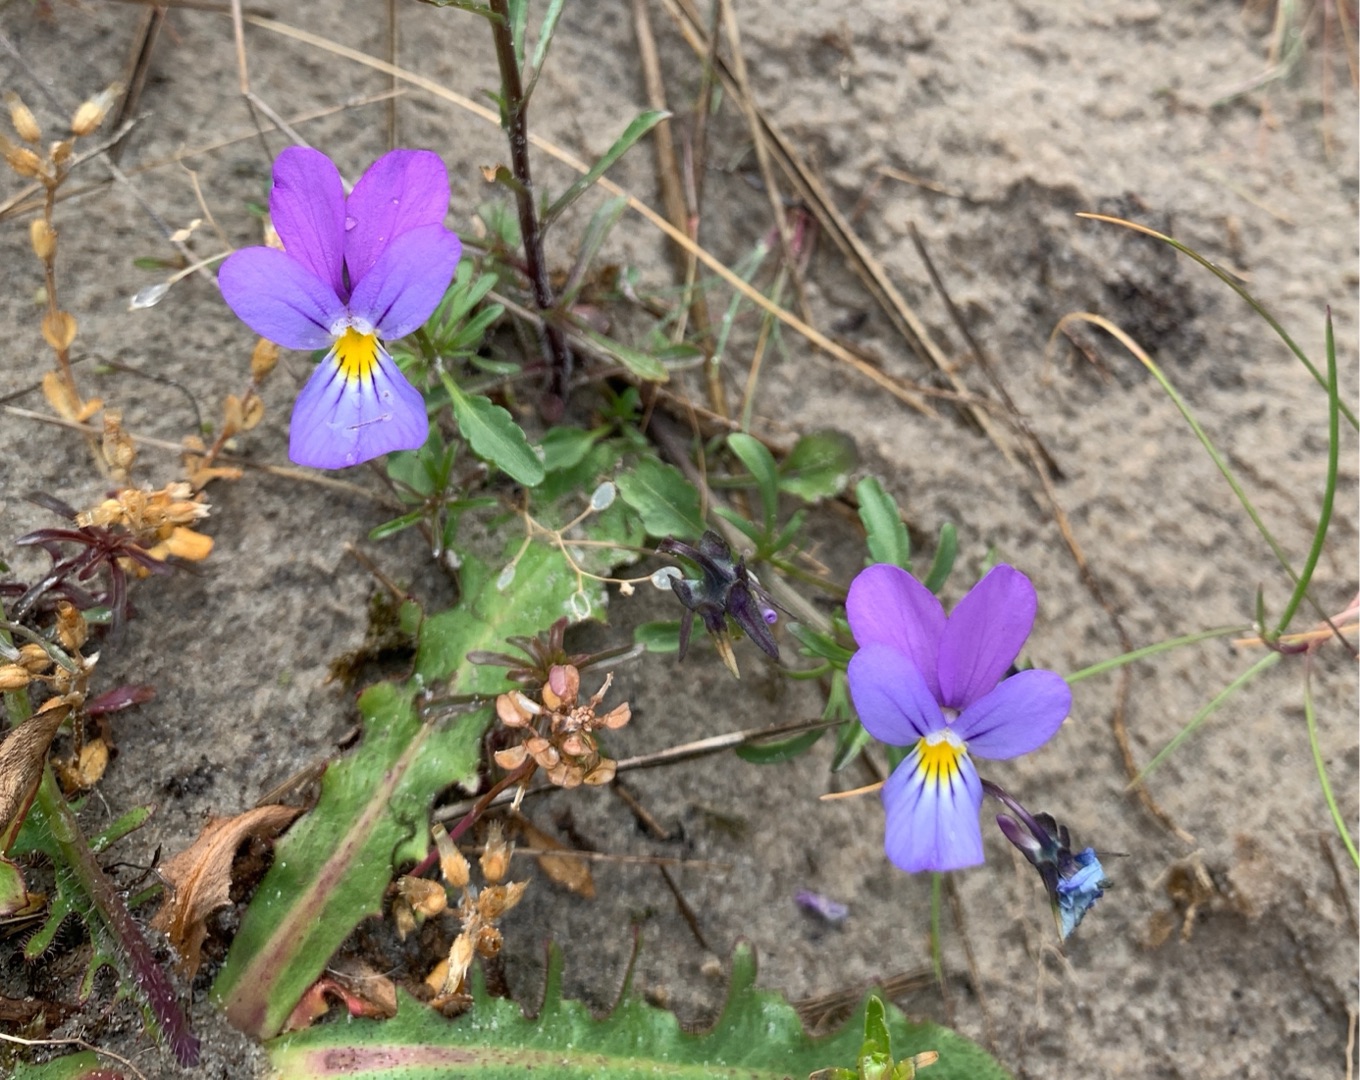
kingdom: Plantae
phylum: Tracheophyta
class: Magnoliopsida
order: Malpighiales
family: Violaceae
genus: Viola
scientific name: Viola tricolor
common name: Stedmoderblomst
